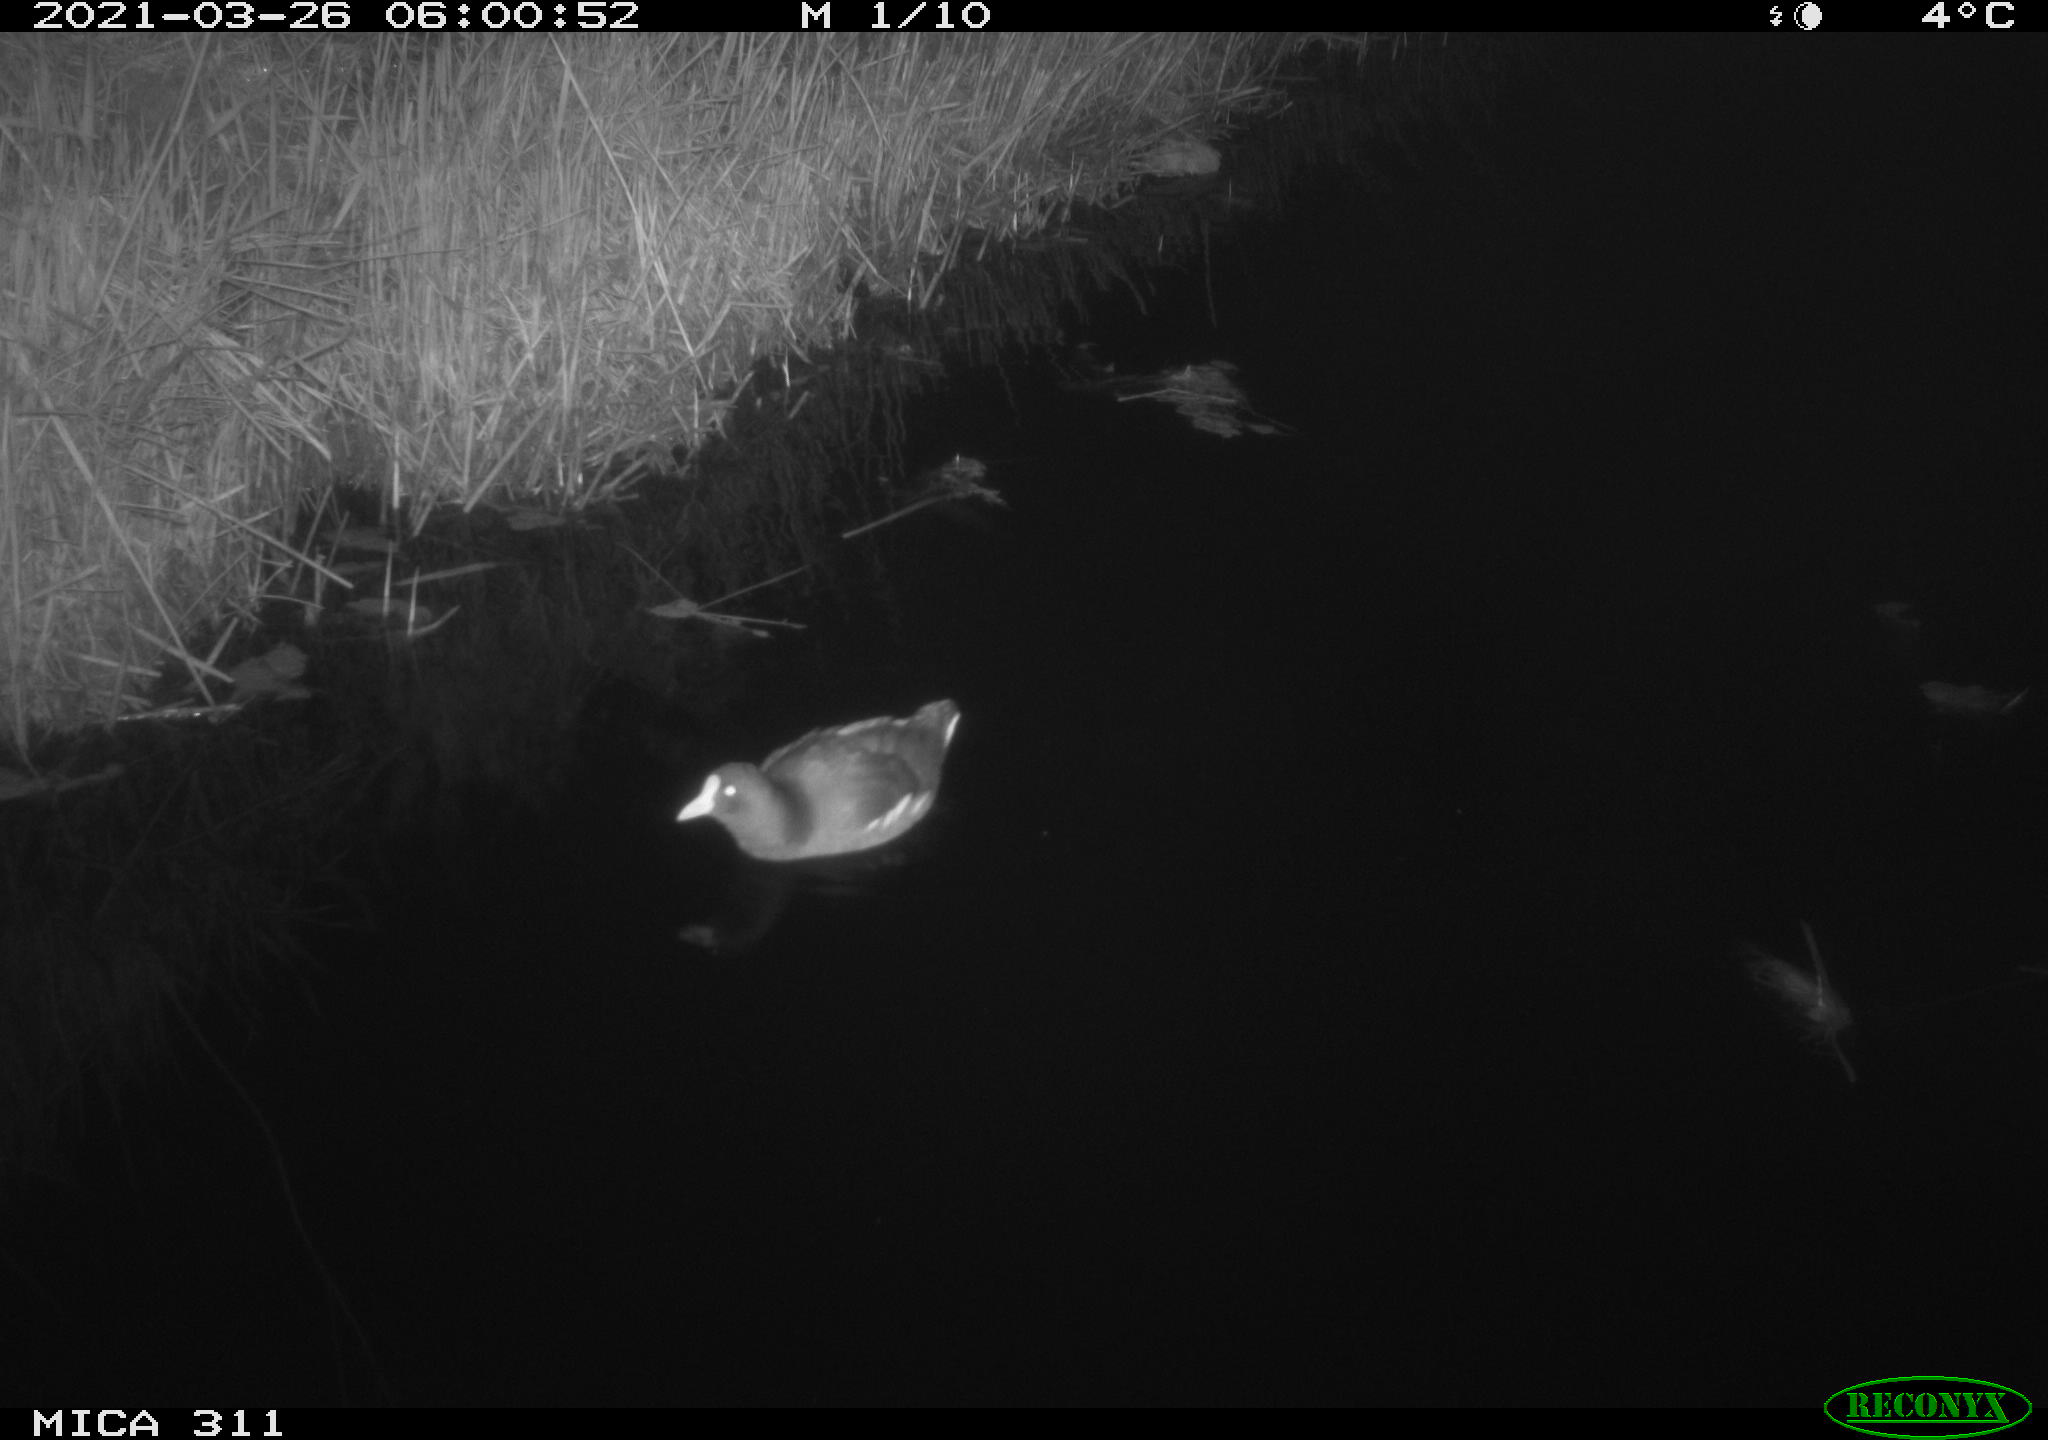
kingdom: Animalia
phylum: Chordata
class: Aves
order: Gruiformes
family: Rallidae
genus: Gallinula
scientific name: Gallinula chloropus
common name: Common moorhen
